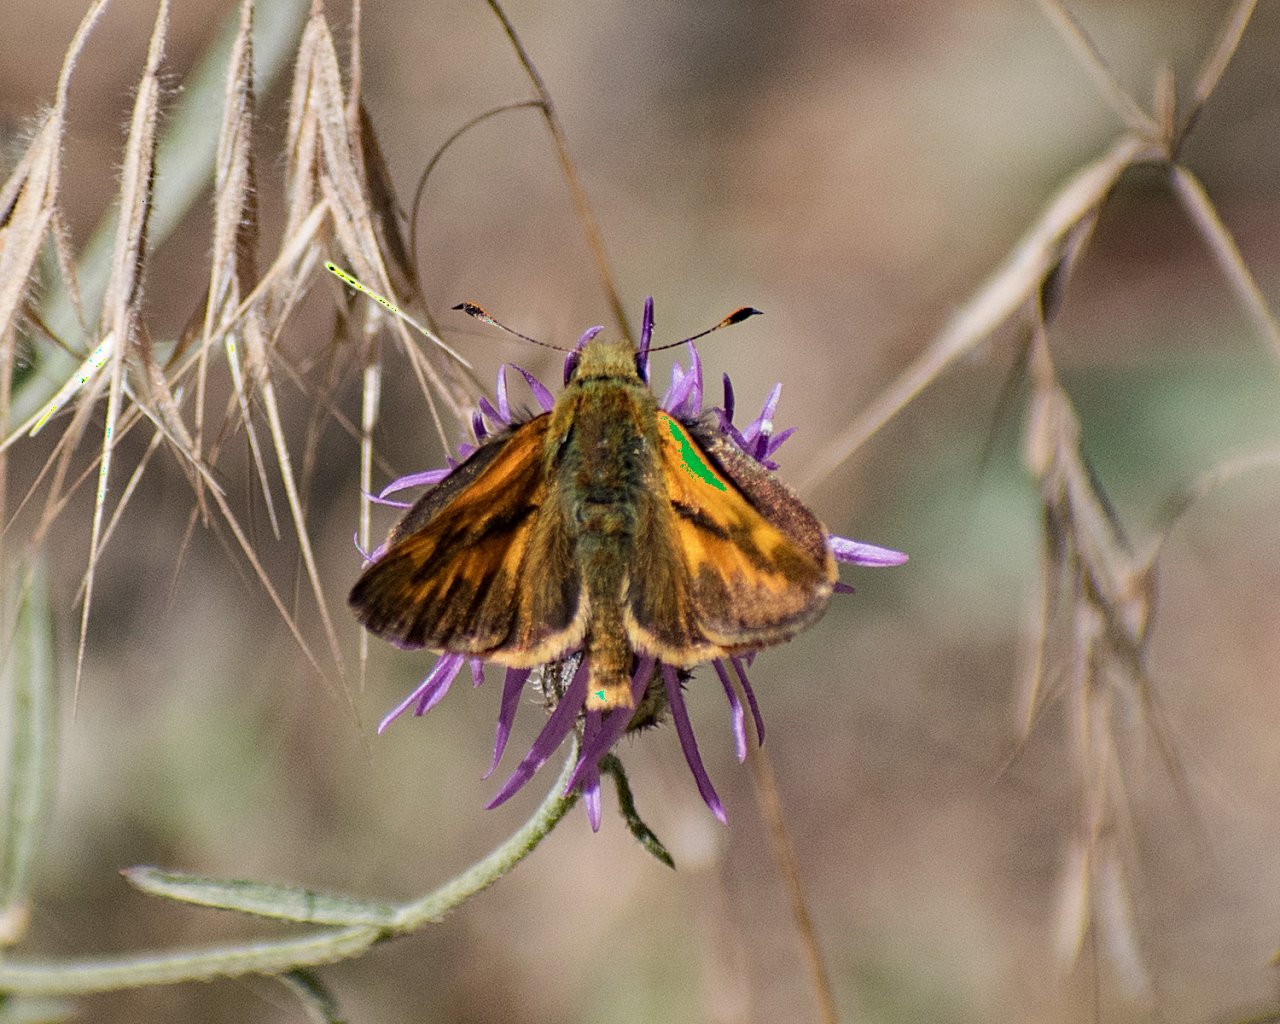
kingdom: Animalia
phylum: Arthropoda
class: Insecta
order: Lepidoptera
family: Hesperiidae
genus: Ochlodes
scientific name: Ochlodes sylvanoides
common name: Woodland Skipper
